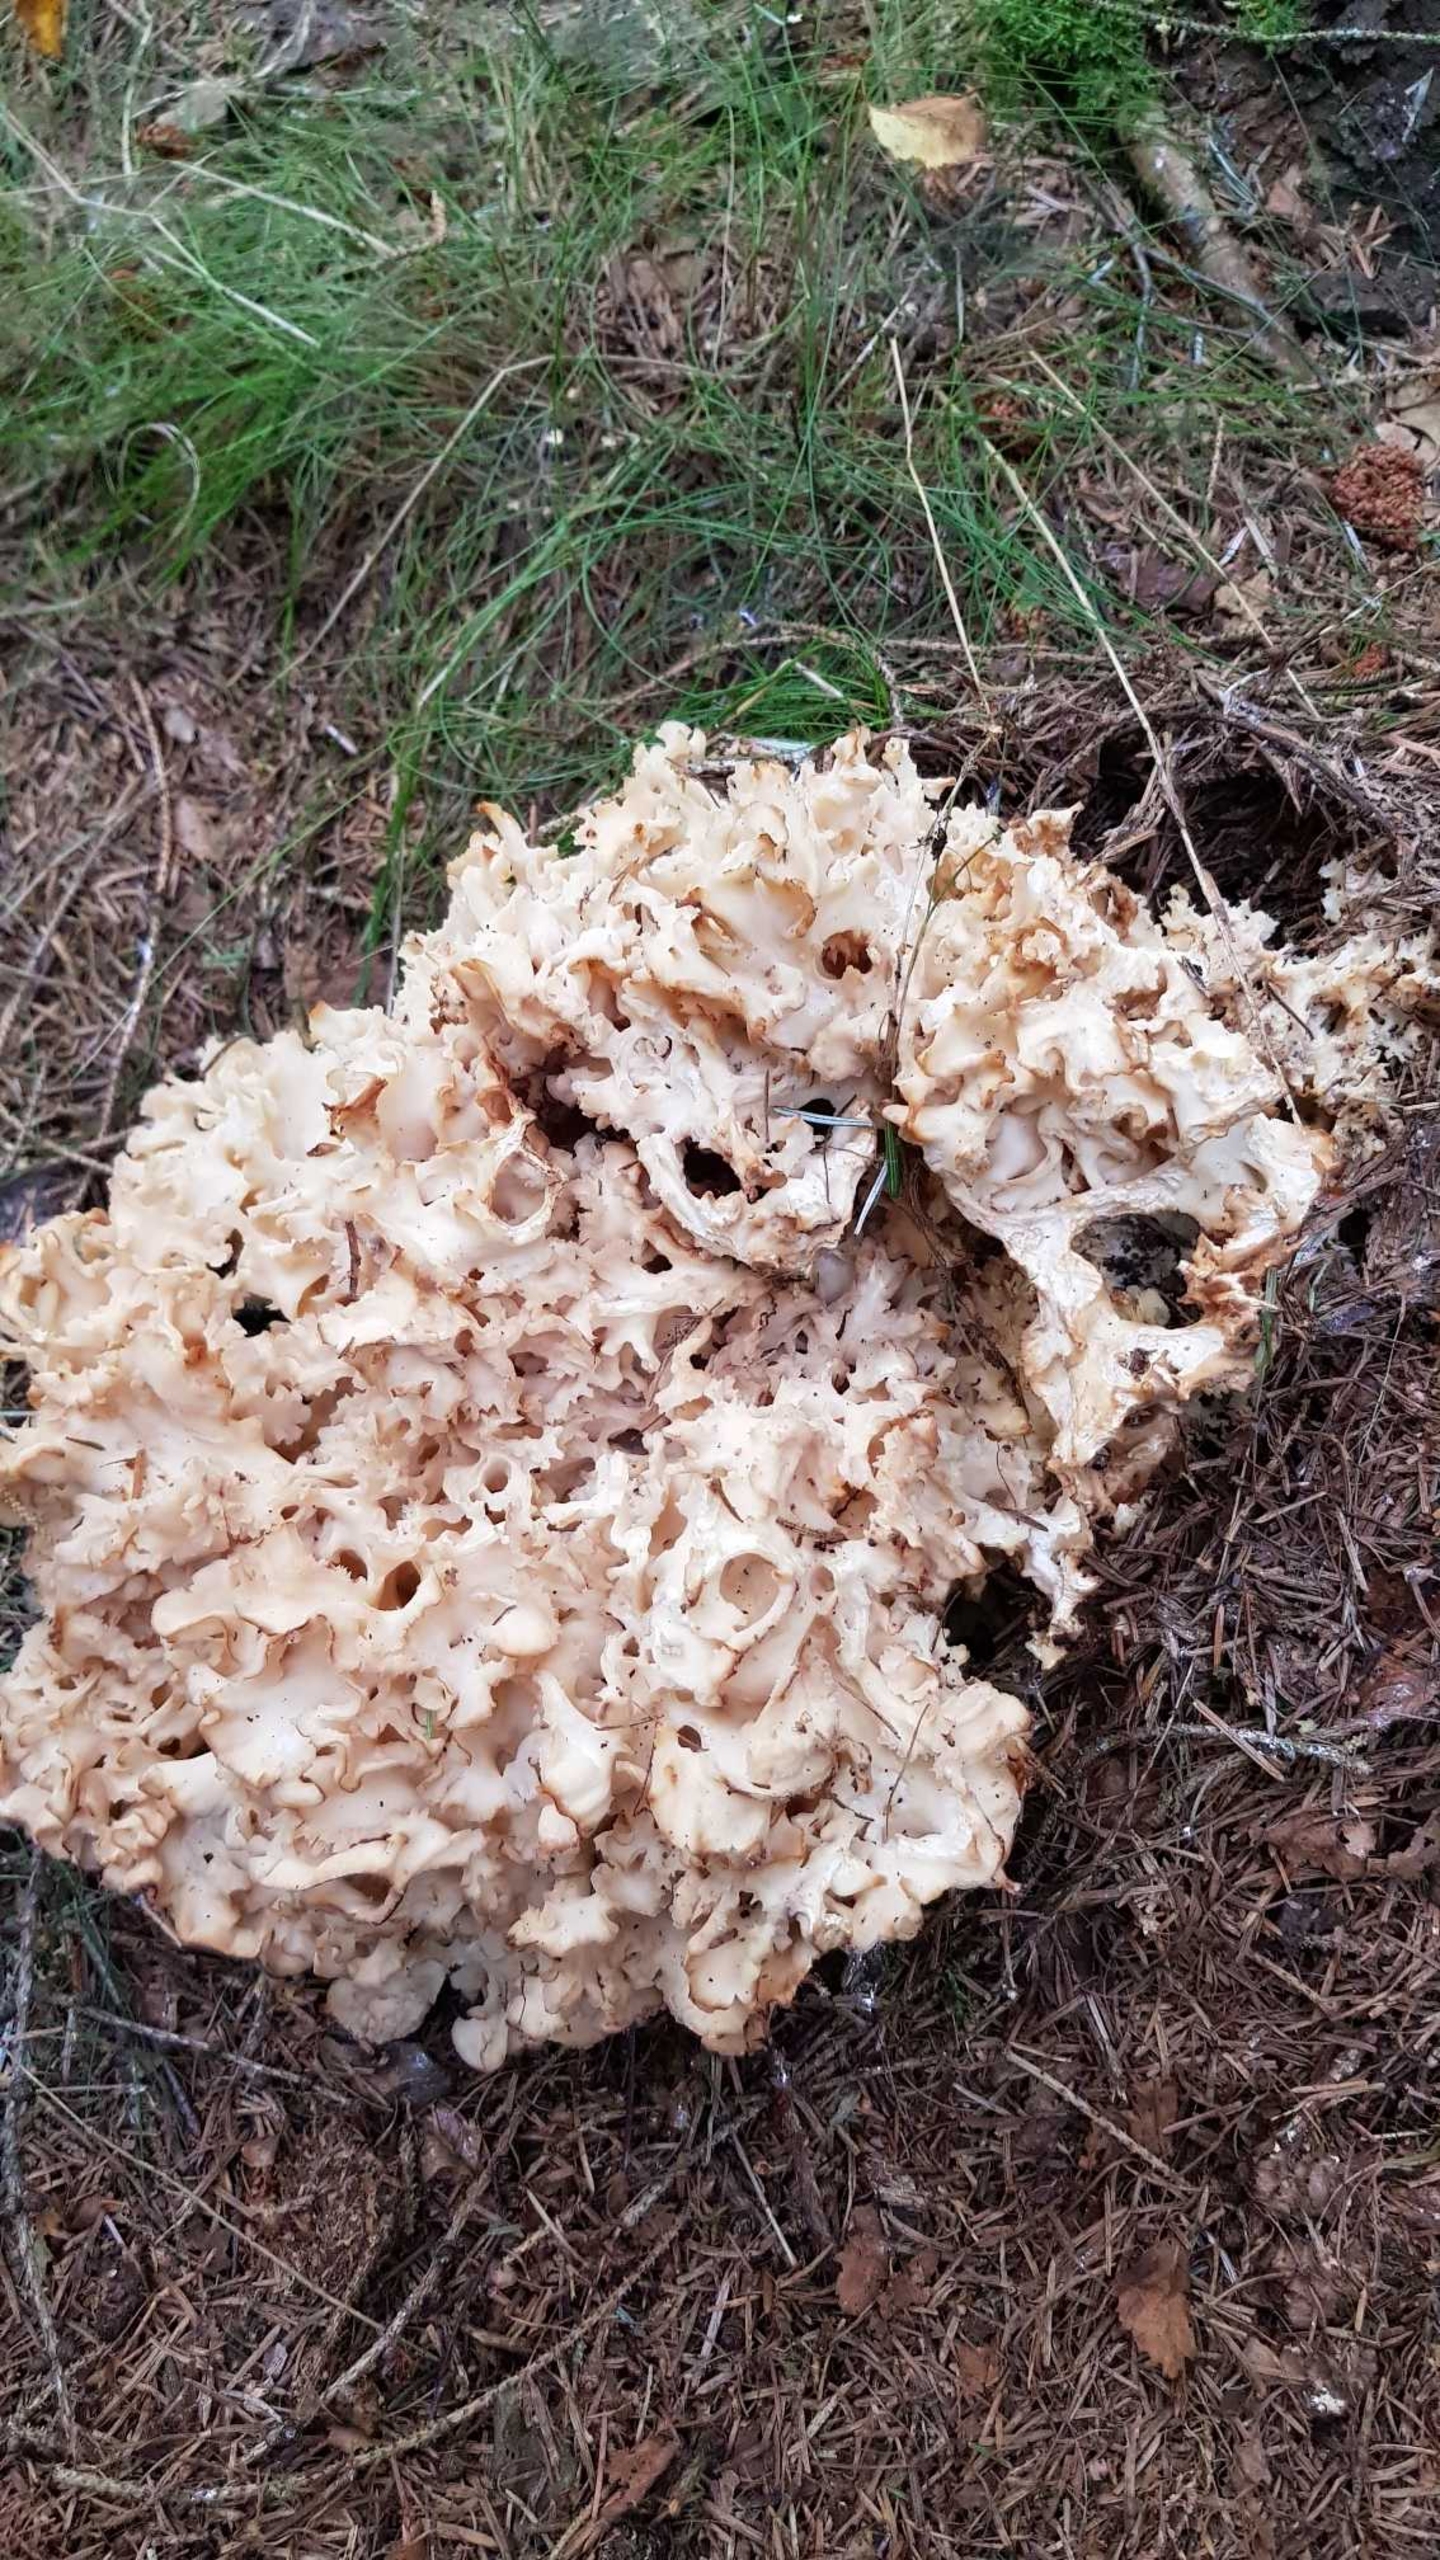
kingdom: Fungi
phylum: Basidiomycota
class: Agaricomycetes
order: Polyporales
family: Sparassidaceae
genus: Sparassis
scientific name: Sparassis crispa
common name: Kruset blomkålssvamp
